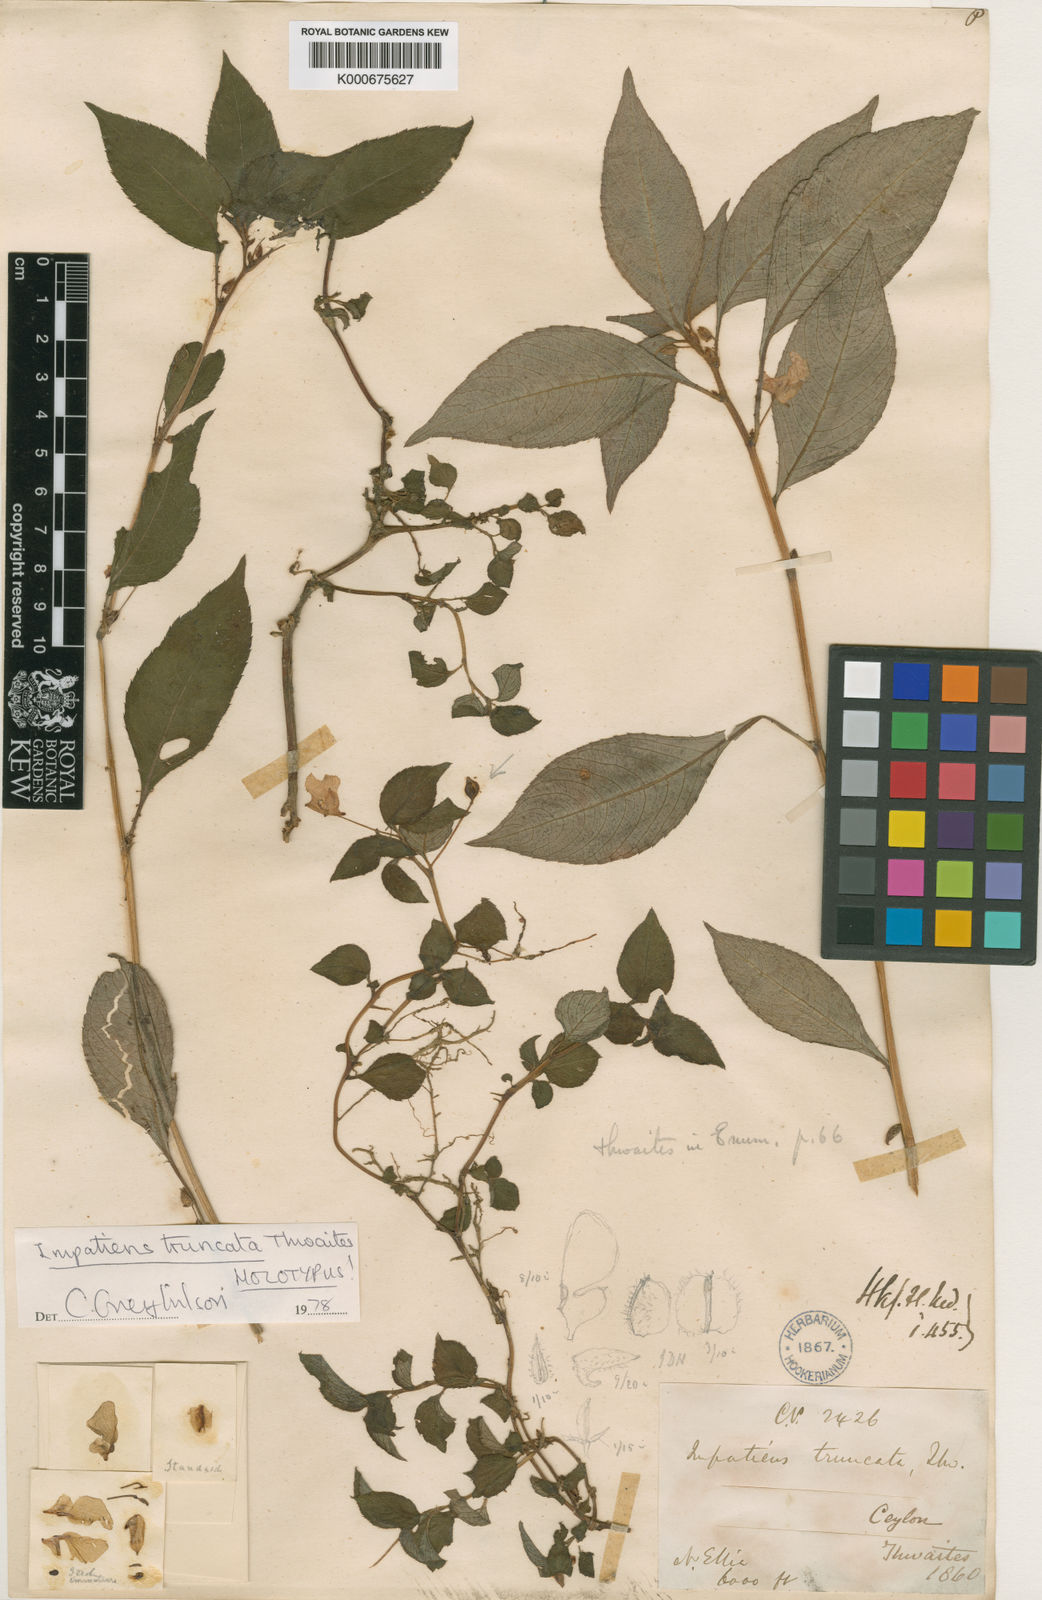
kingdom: Plantae
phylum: Tracheophyta
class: Magnoliopsida
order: Ericales
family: Balsaminaceae
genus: Impatiens
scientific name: Impatiens truncata
